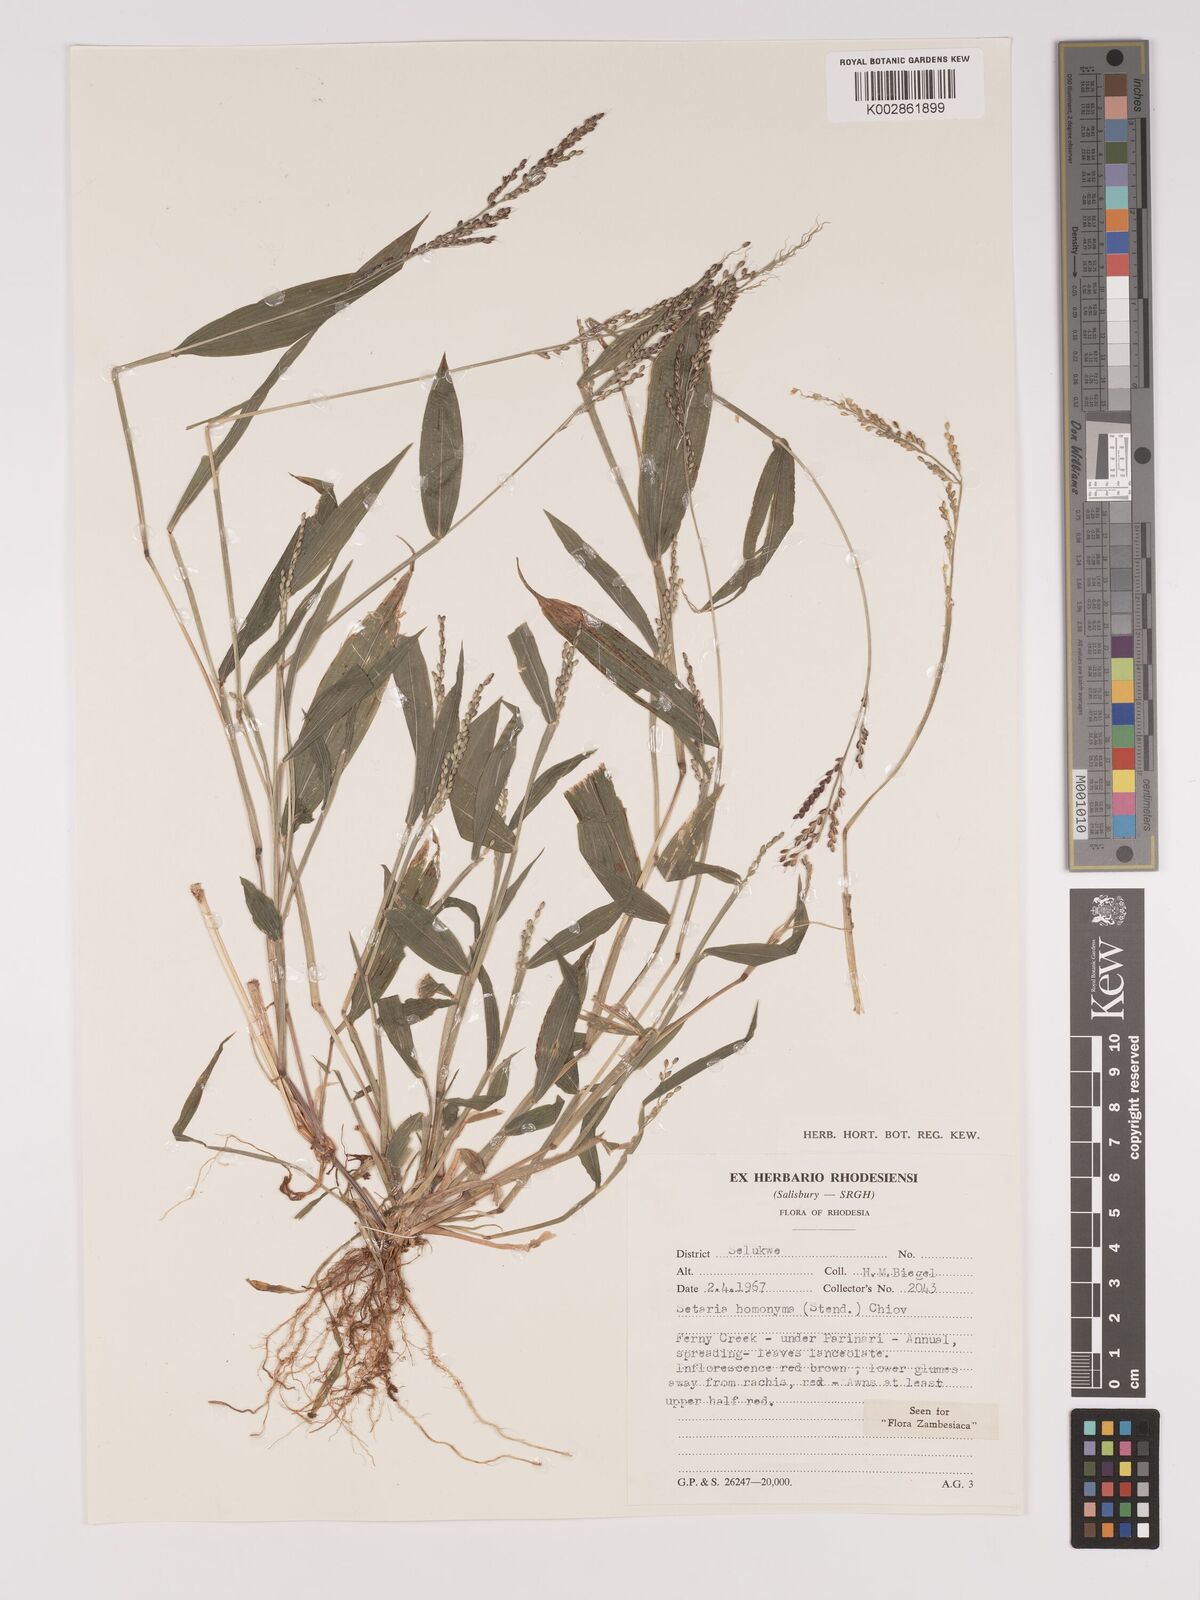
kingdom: Plantae
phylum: Tracheophyta
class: Liliopsida
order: Poales
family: Poaceae
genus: Setaria
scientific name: Setaria homonyma
